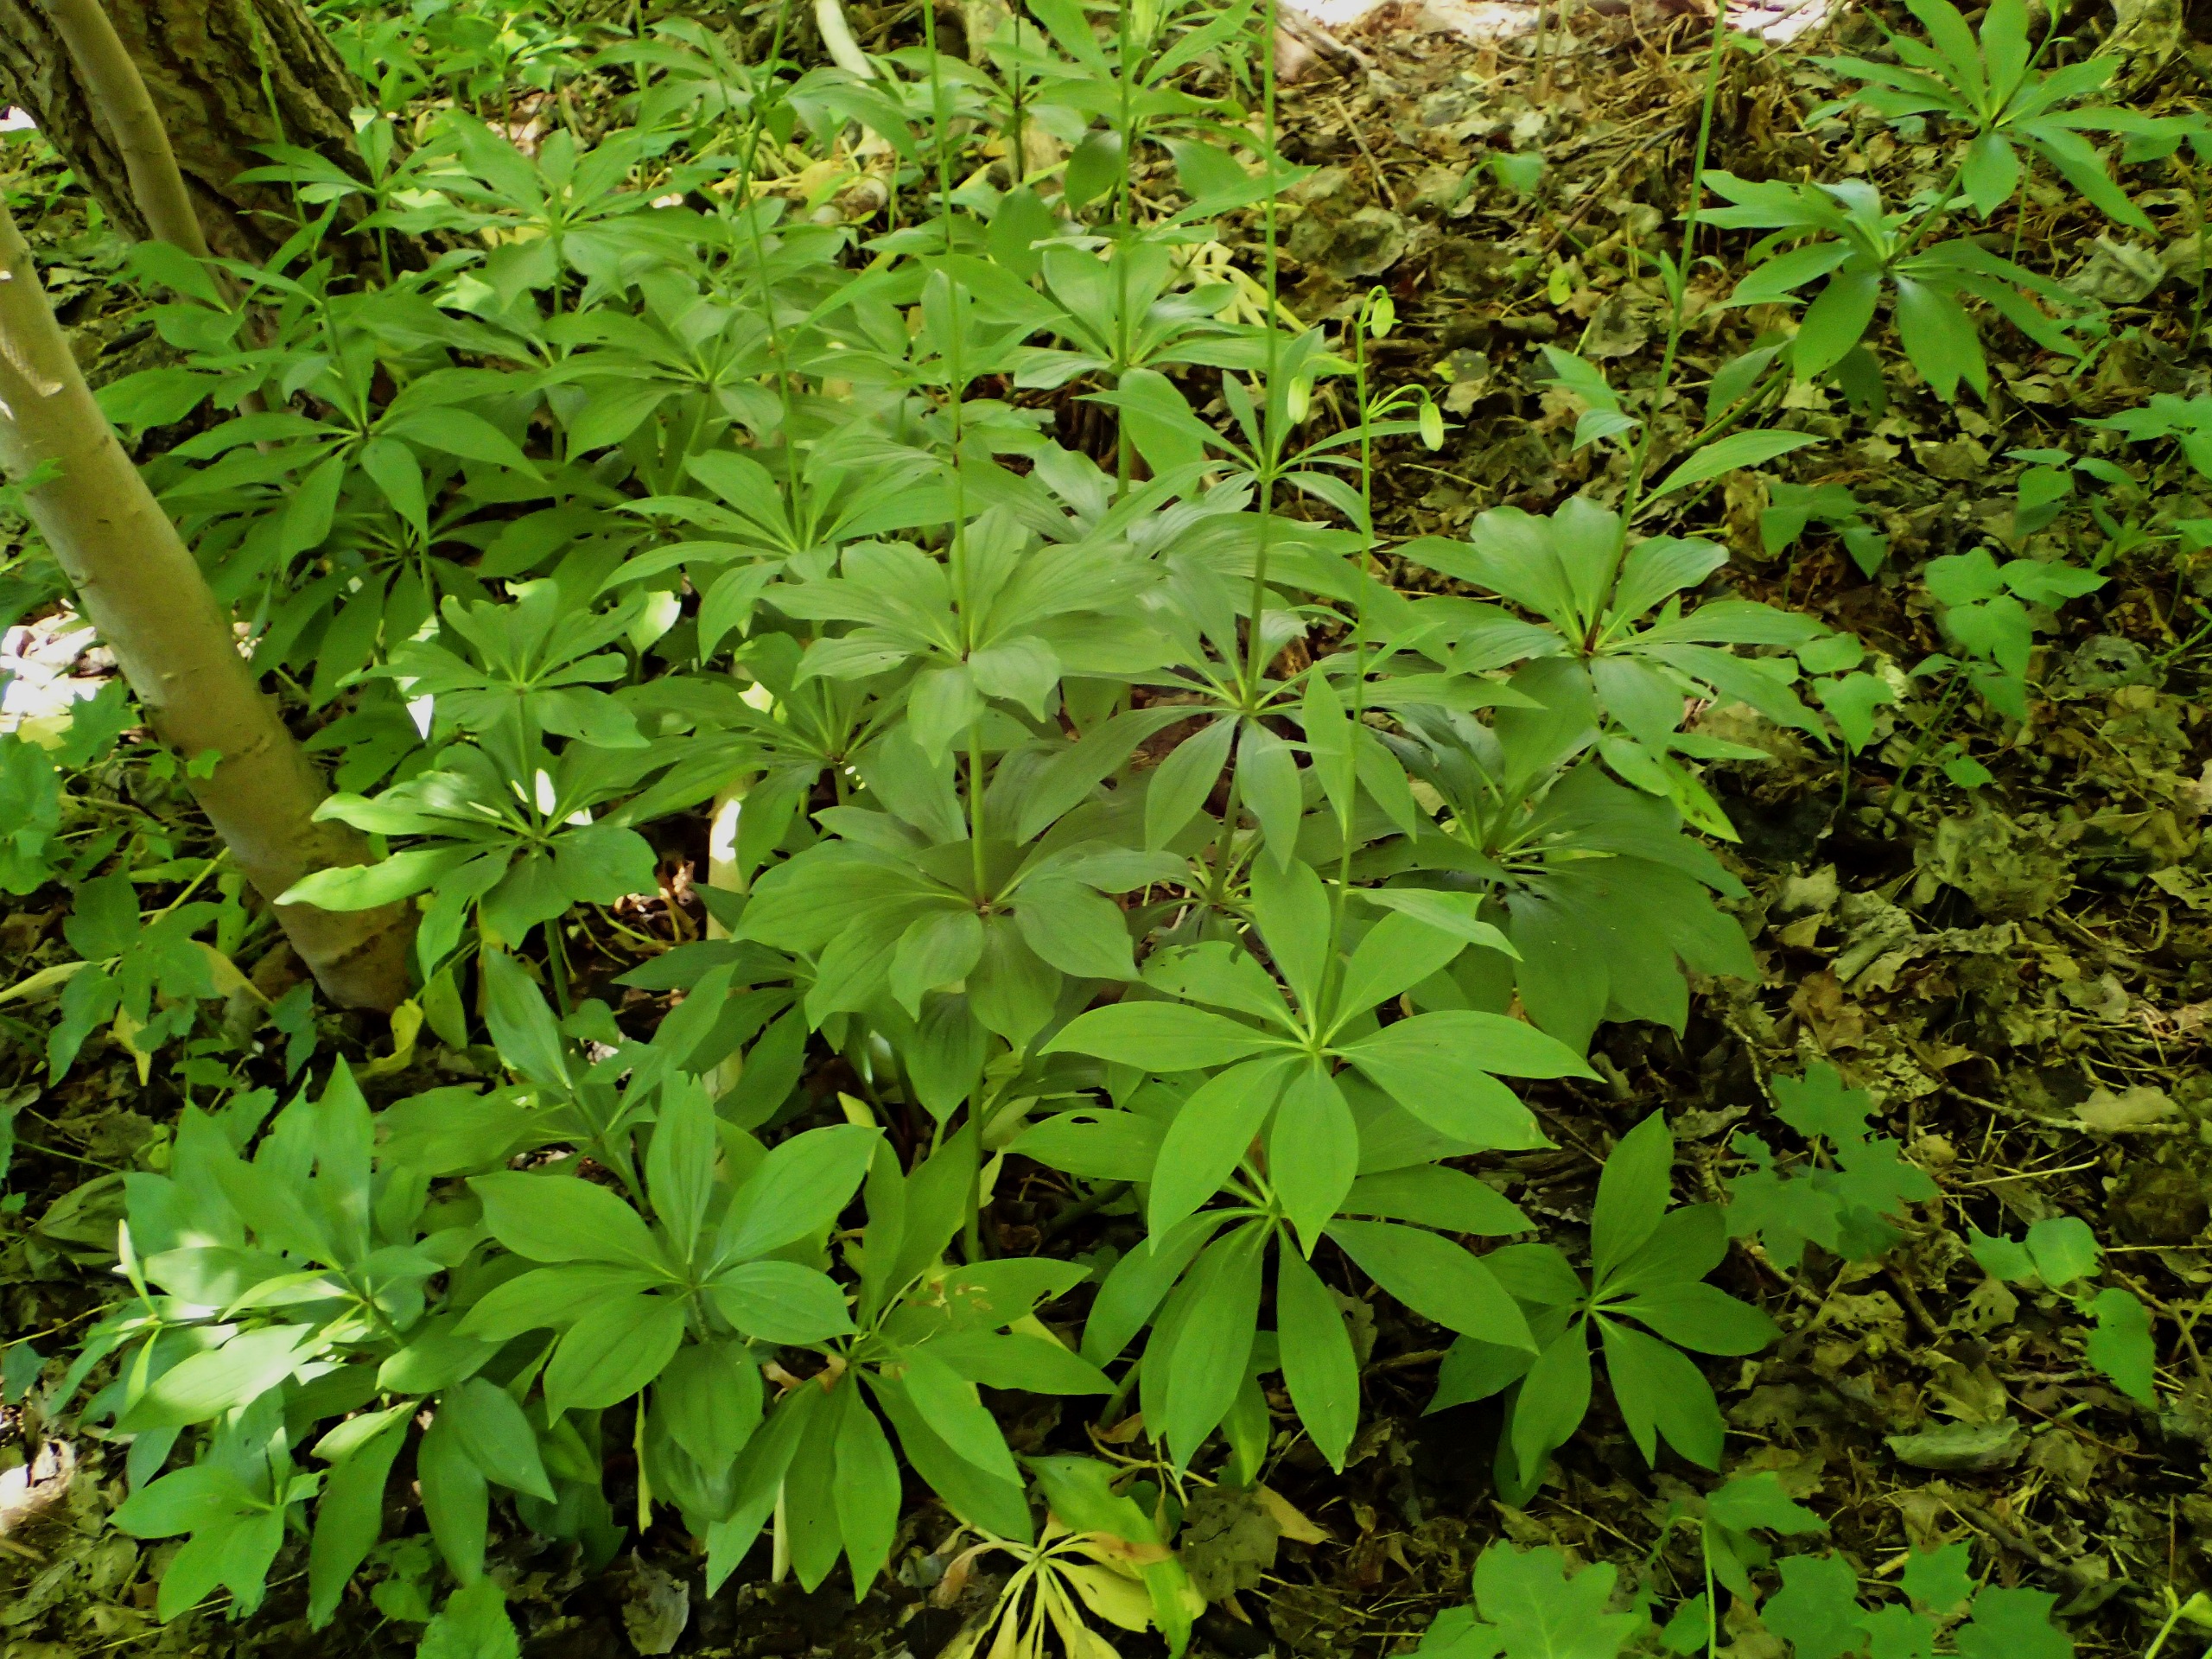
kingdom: Plantae
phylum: Tracheophyta
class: Liliopsida
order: Liliales
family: Liliaceae
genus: Lilium
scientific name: Lilium martagon
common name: Krans-lilje
